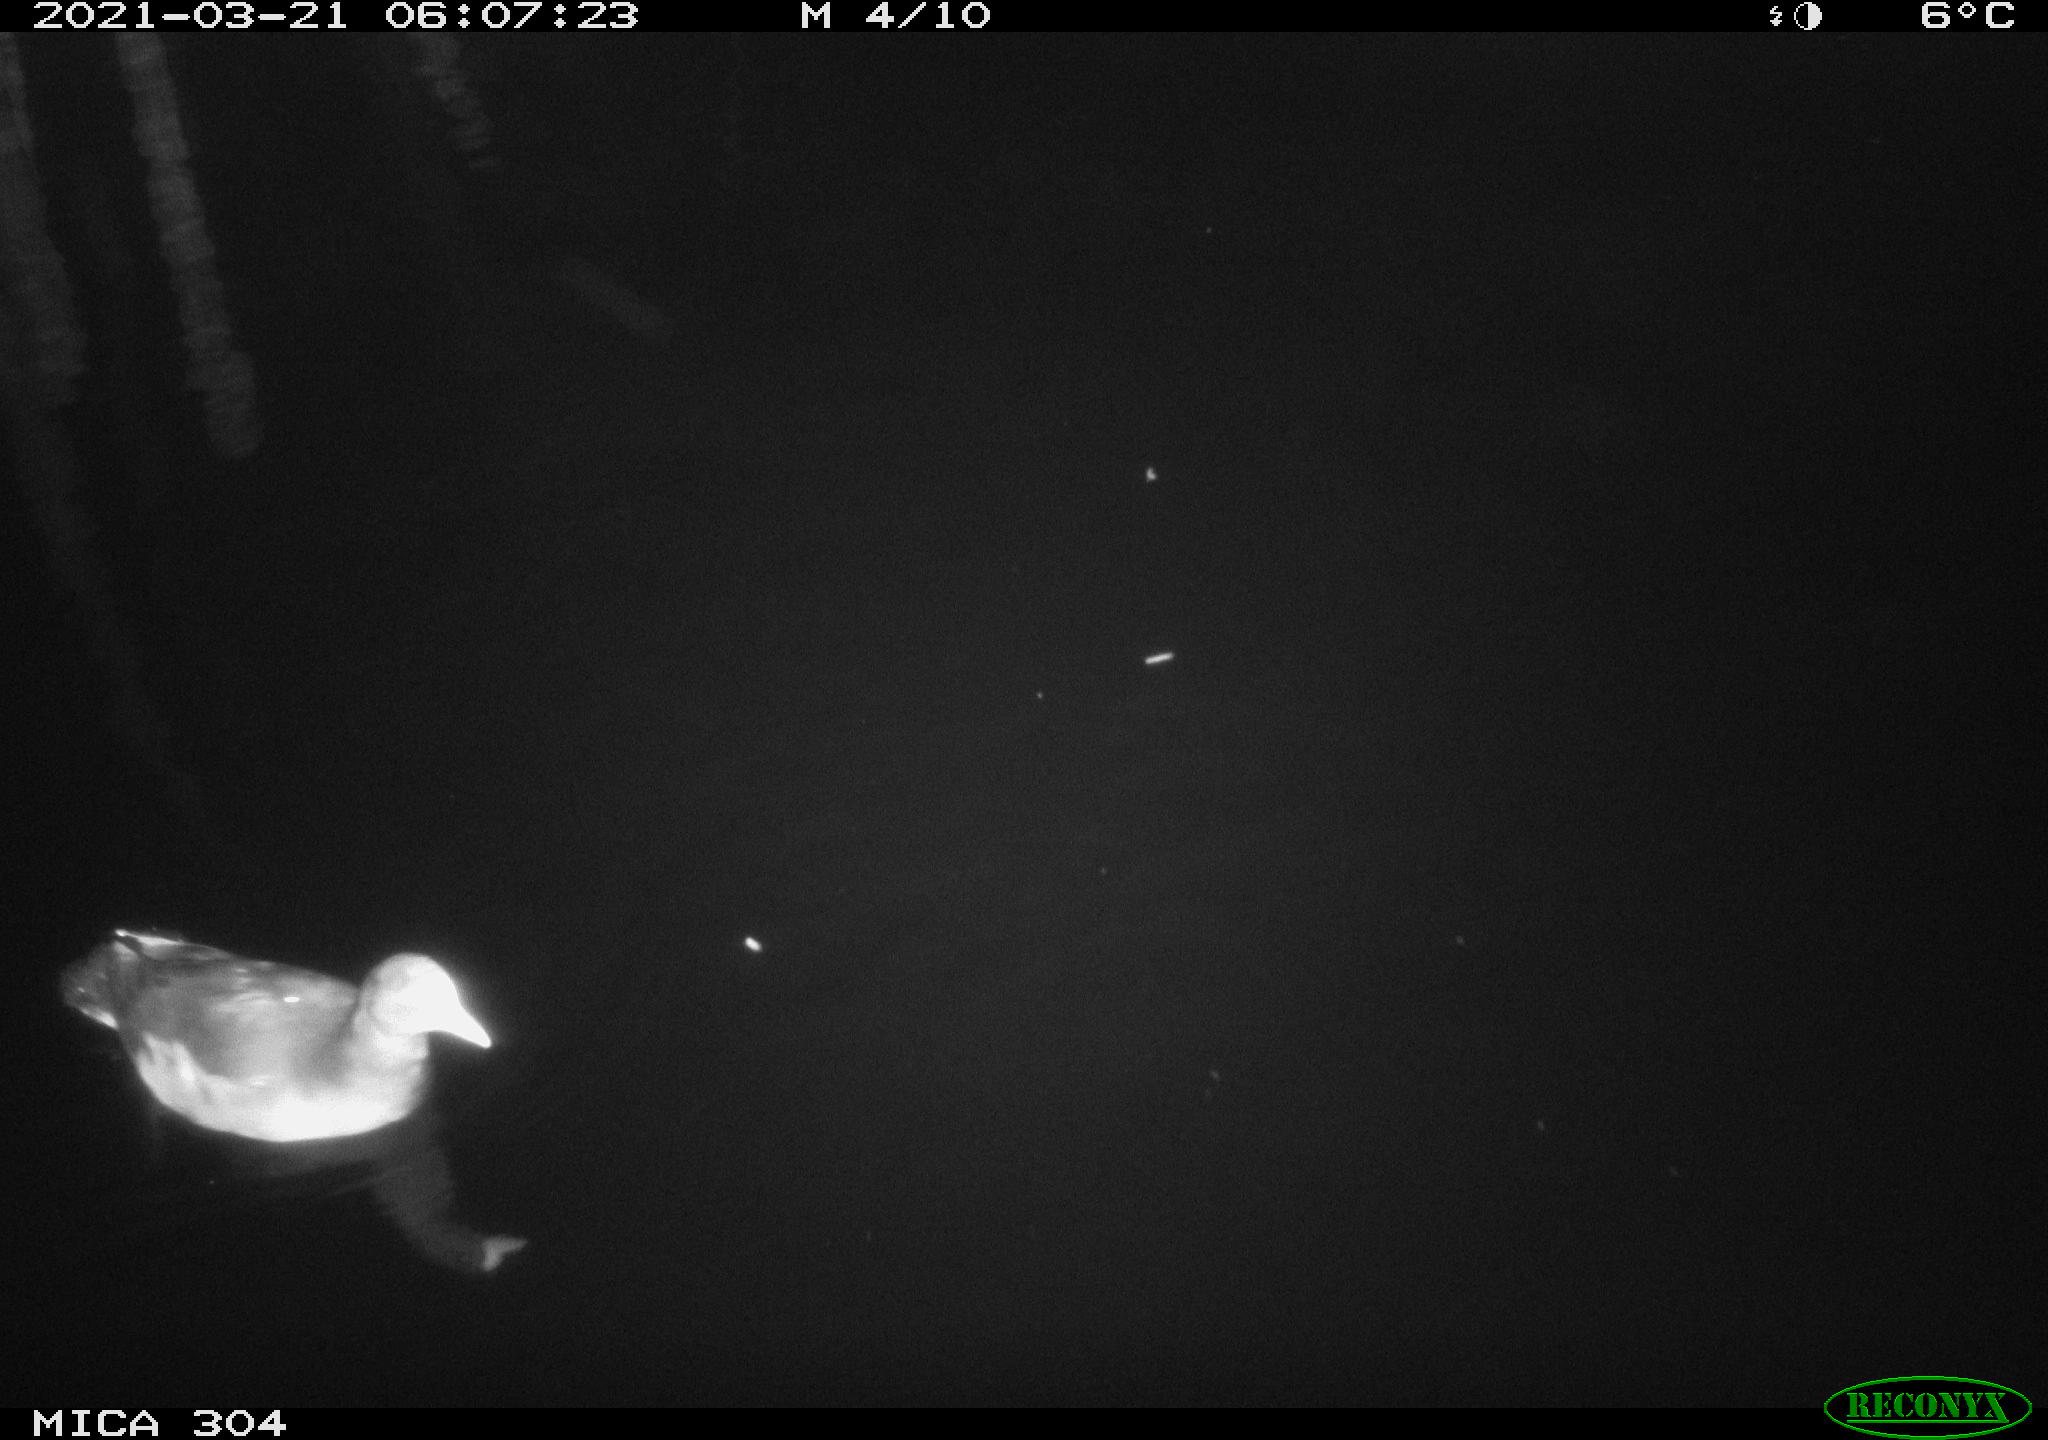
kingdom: Animalia
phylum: Chordata
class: Aves
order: Gruiformes
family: Rallidae
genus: Gallinula
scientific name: Gallinula chloropus
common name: Common moorhen
